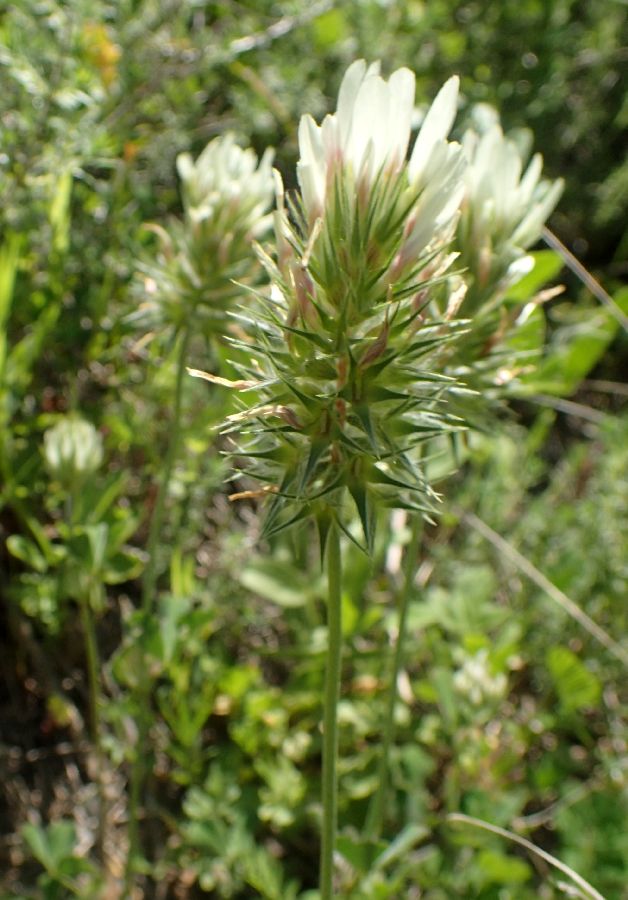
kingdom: Plantae
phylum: Tracheophyta
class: Magnoliopsida
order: Fabales
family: Fabaceae
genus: Trifolium
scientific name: Trifolium stellatum
